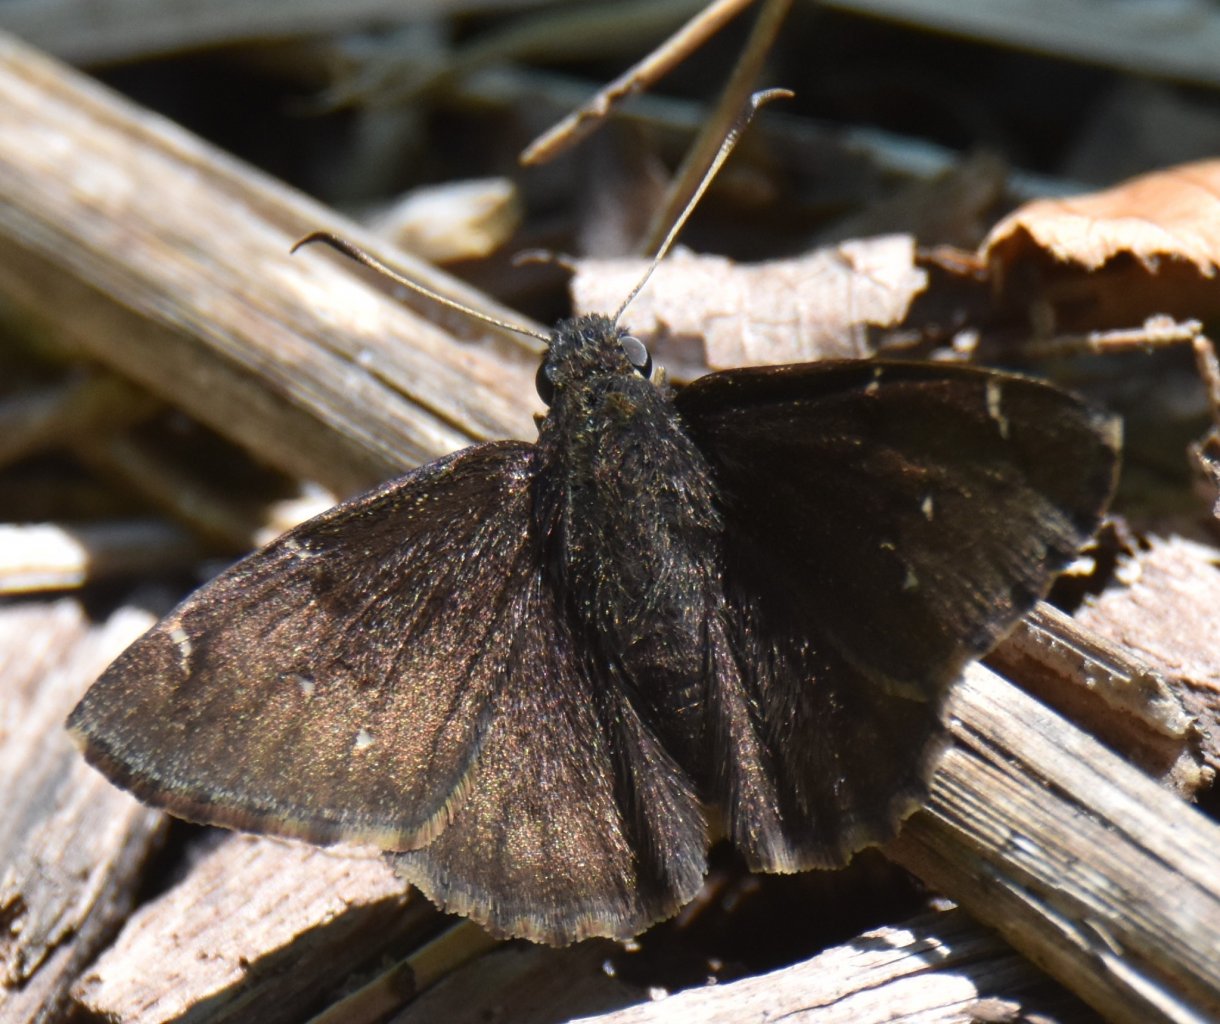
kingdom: Animalia
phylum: Arthropoda
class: Insecta
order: Lepidoptera
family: Hesperiidae
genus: Autochton
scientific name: Autochton
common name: Northern Cloudywing
